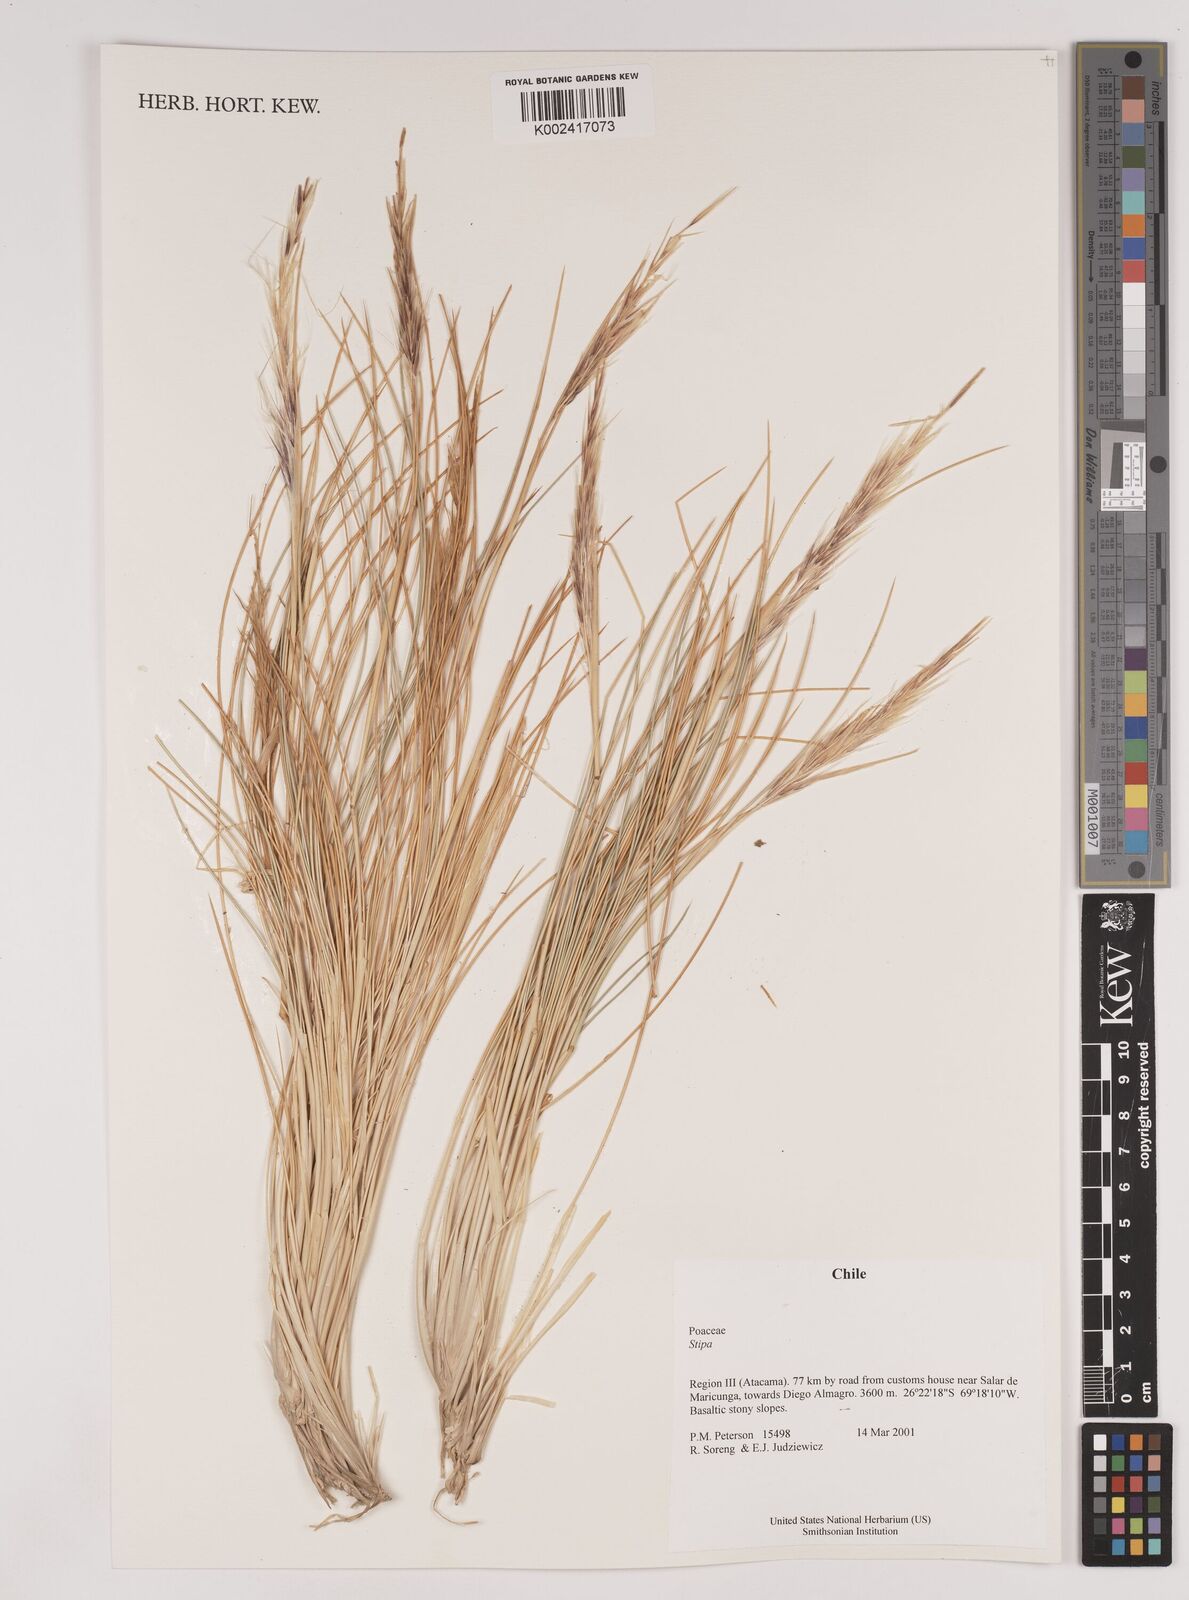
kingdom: Plantae
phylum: Tracheophyta
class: Liliopsida
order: Poales
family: Poaceae
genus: Pappostipa
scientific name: Pappostipa atacamensis
